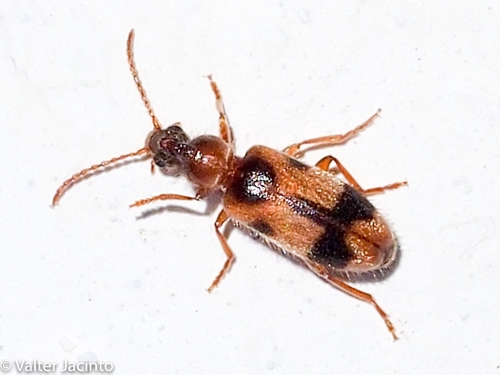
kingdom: Animalia
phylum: Arthropoda
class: Insecta
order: Coleoptera
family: Anthicidae
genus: Notoxus
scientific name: Notoxus
